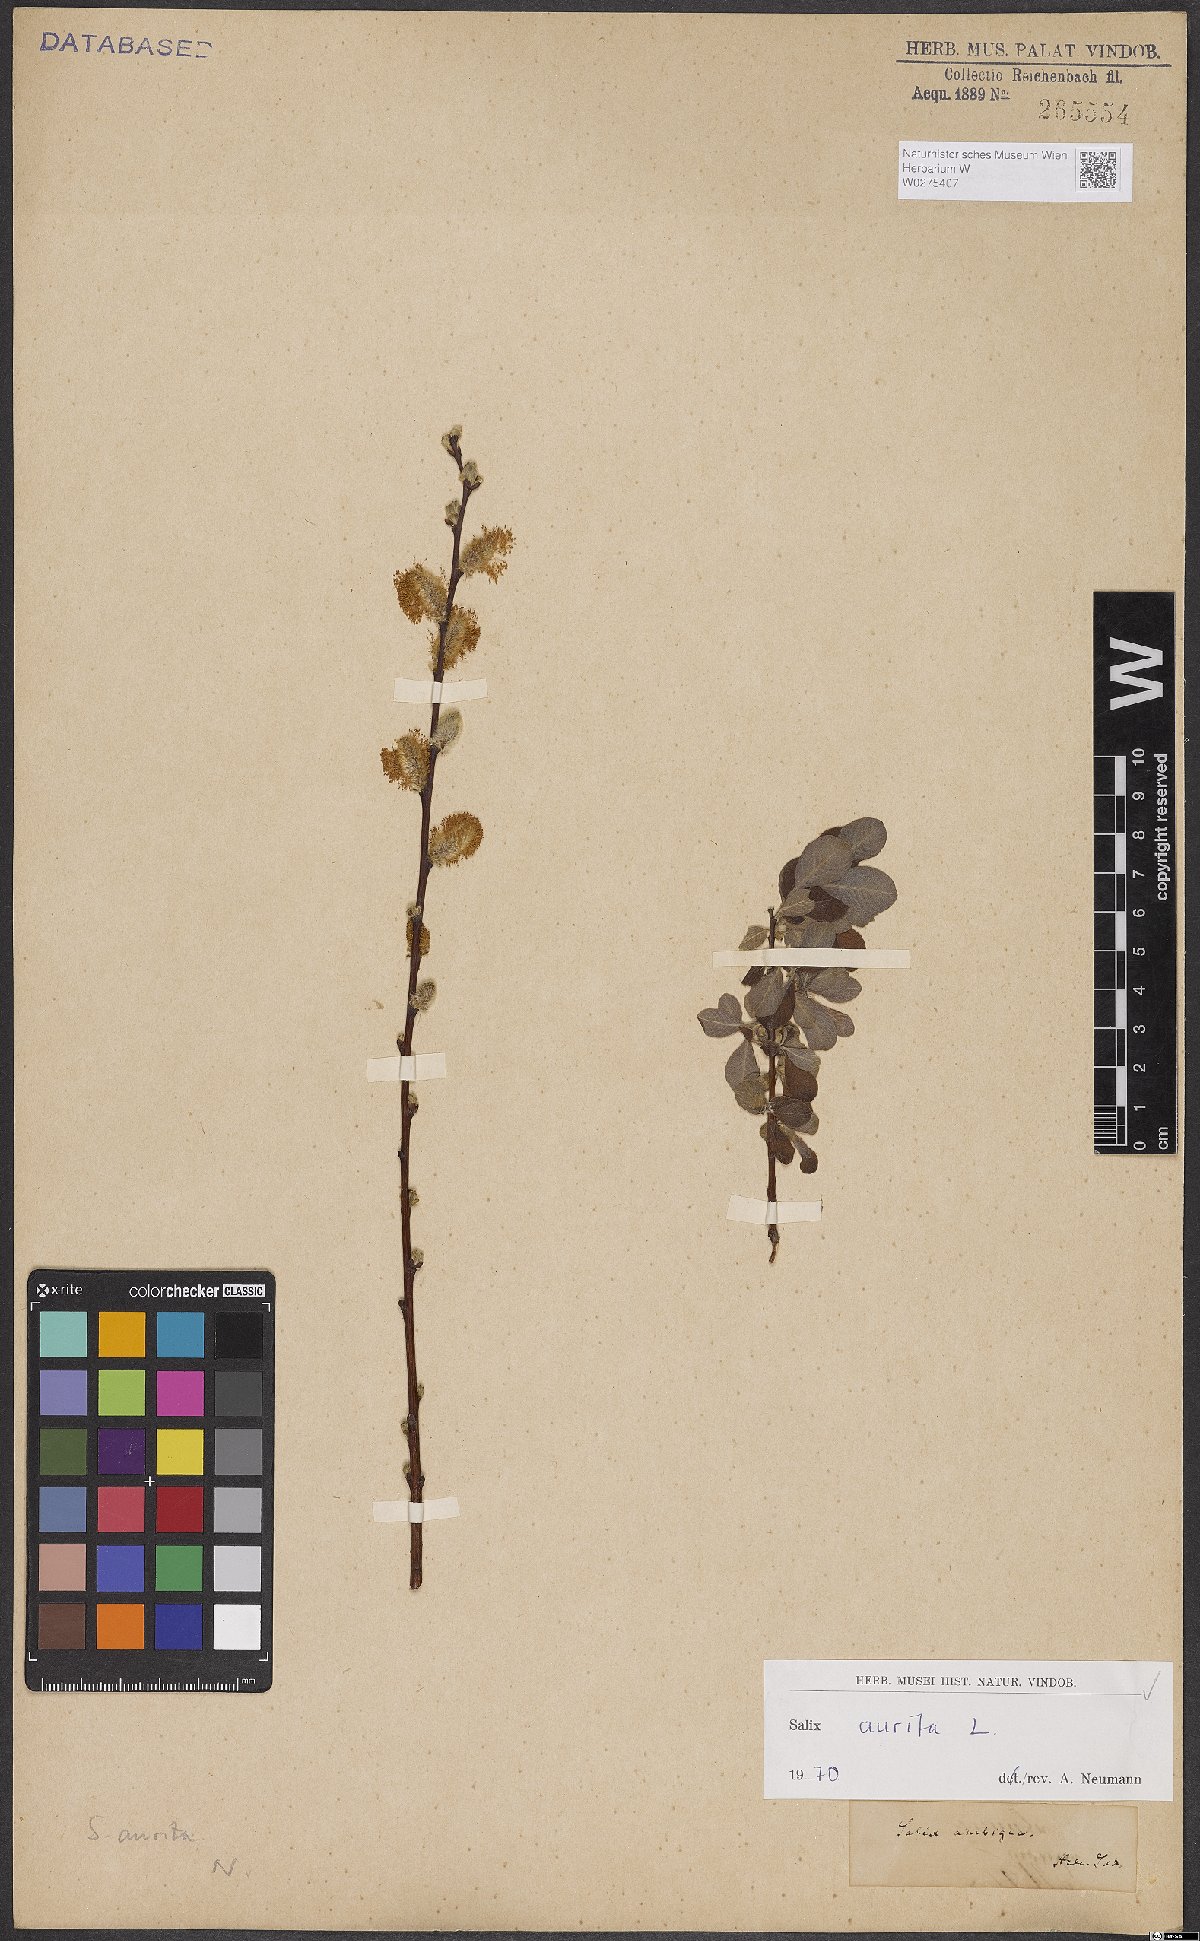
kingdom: Plantae
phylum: Tracheophyta
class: Magnoliopsida
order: Malpighiales
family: Salicaceae
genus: Salix
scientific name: Salix aurita
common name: Eared willow
